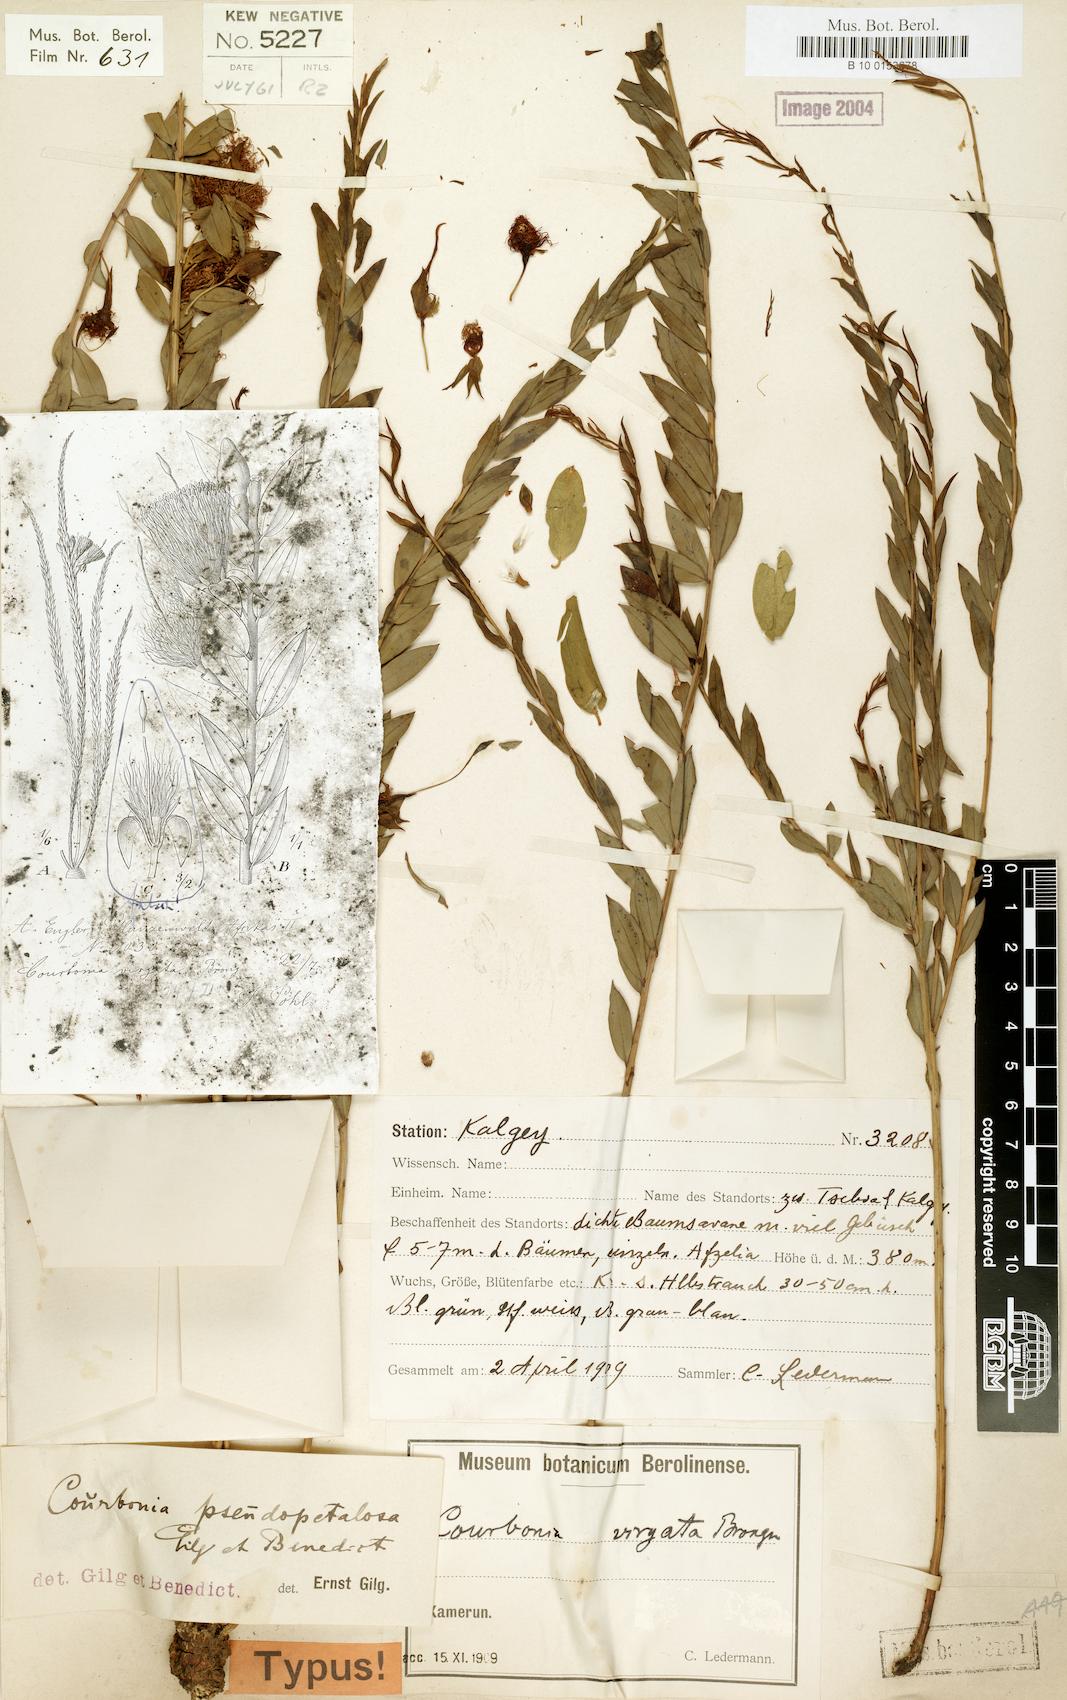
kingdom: Plantae
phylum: Tracheophyta
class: Magnoliopsida
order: Brassicales
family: Capparaceae
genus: Maerua
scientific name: Maerua pseudopetalosa
